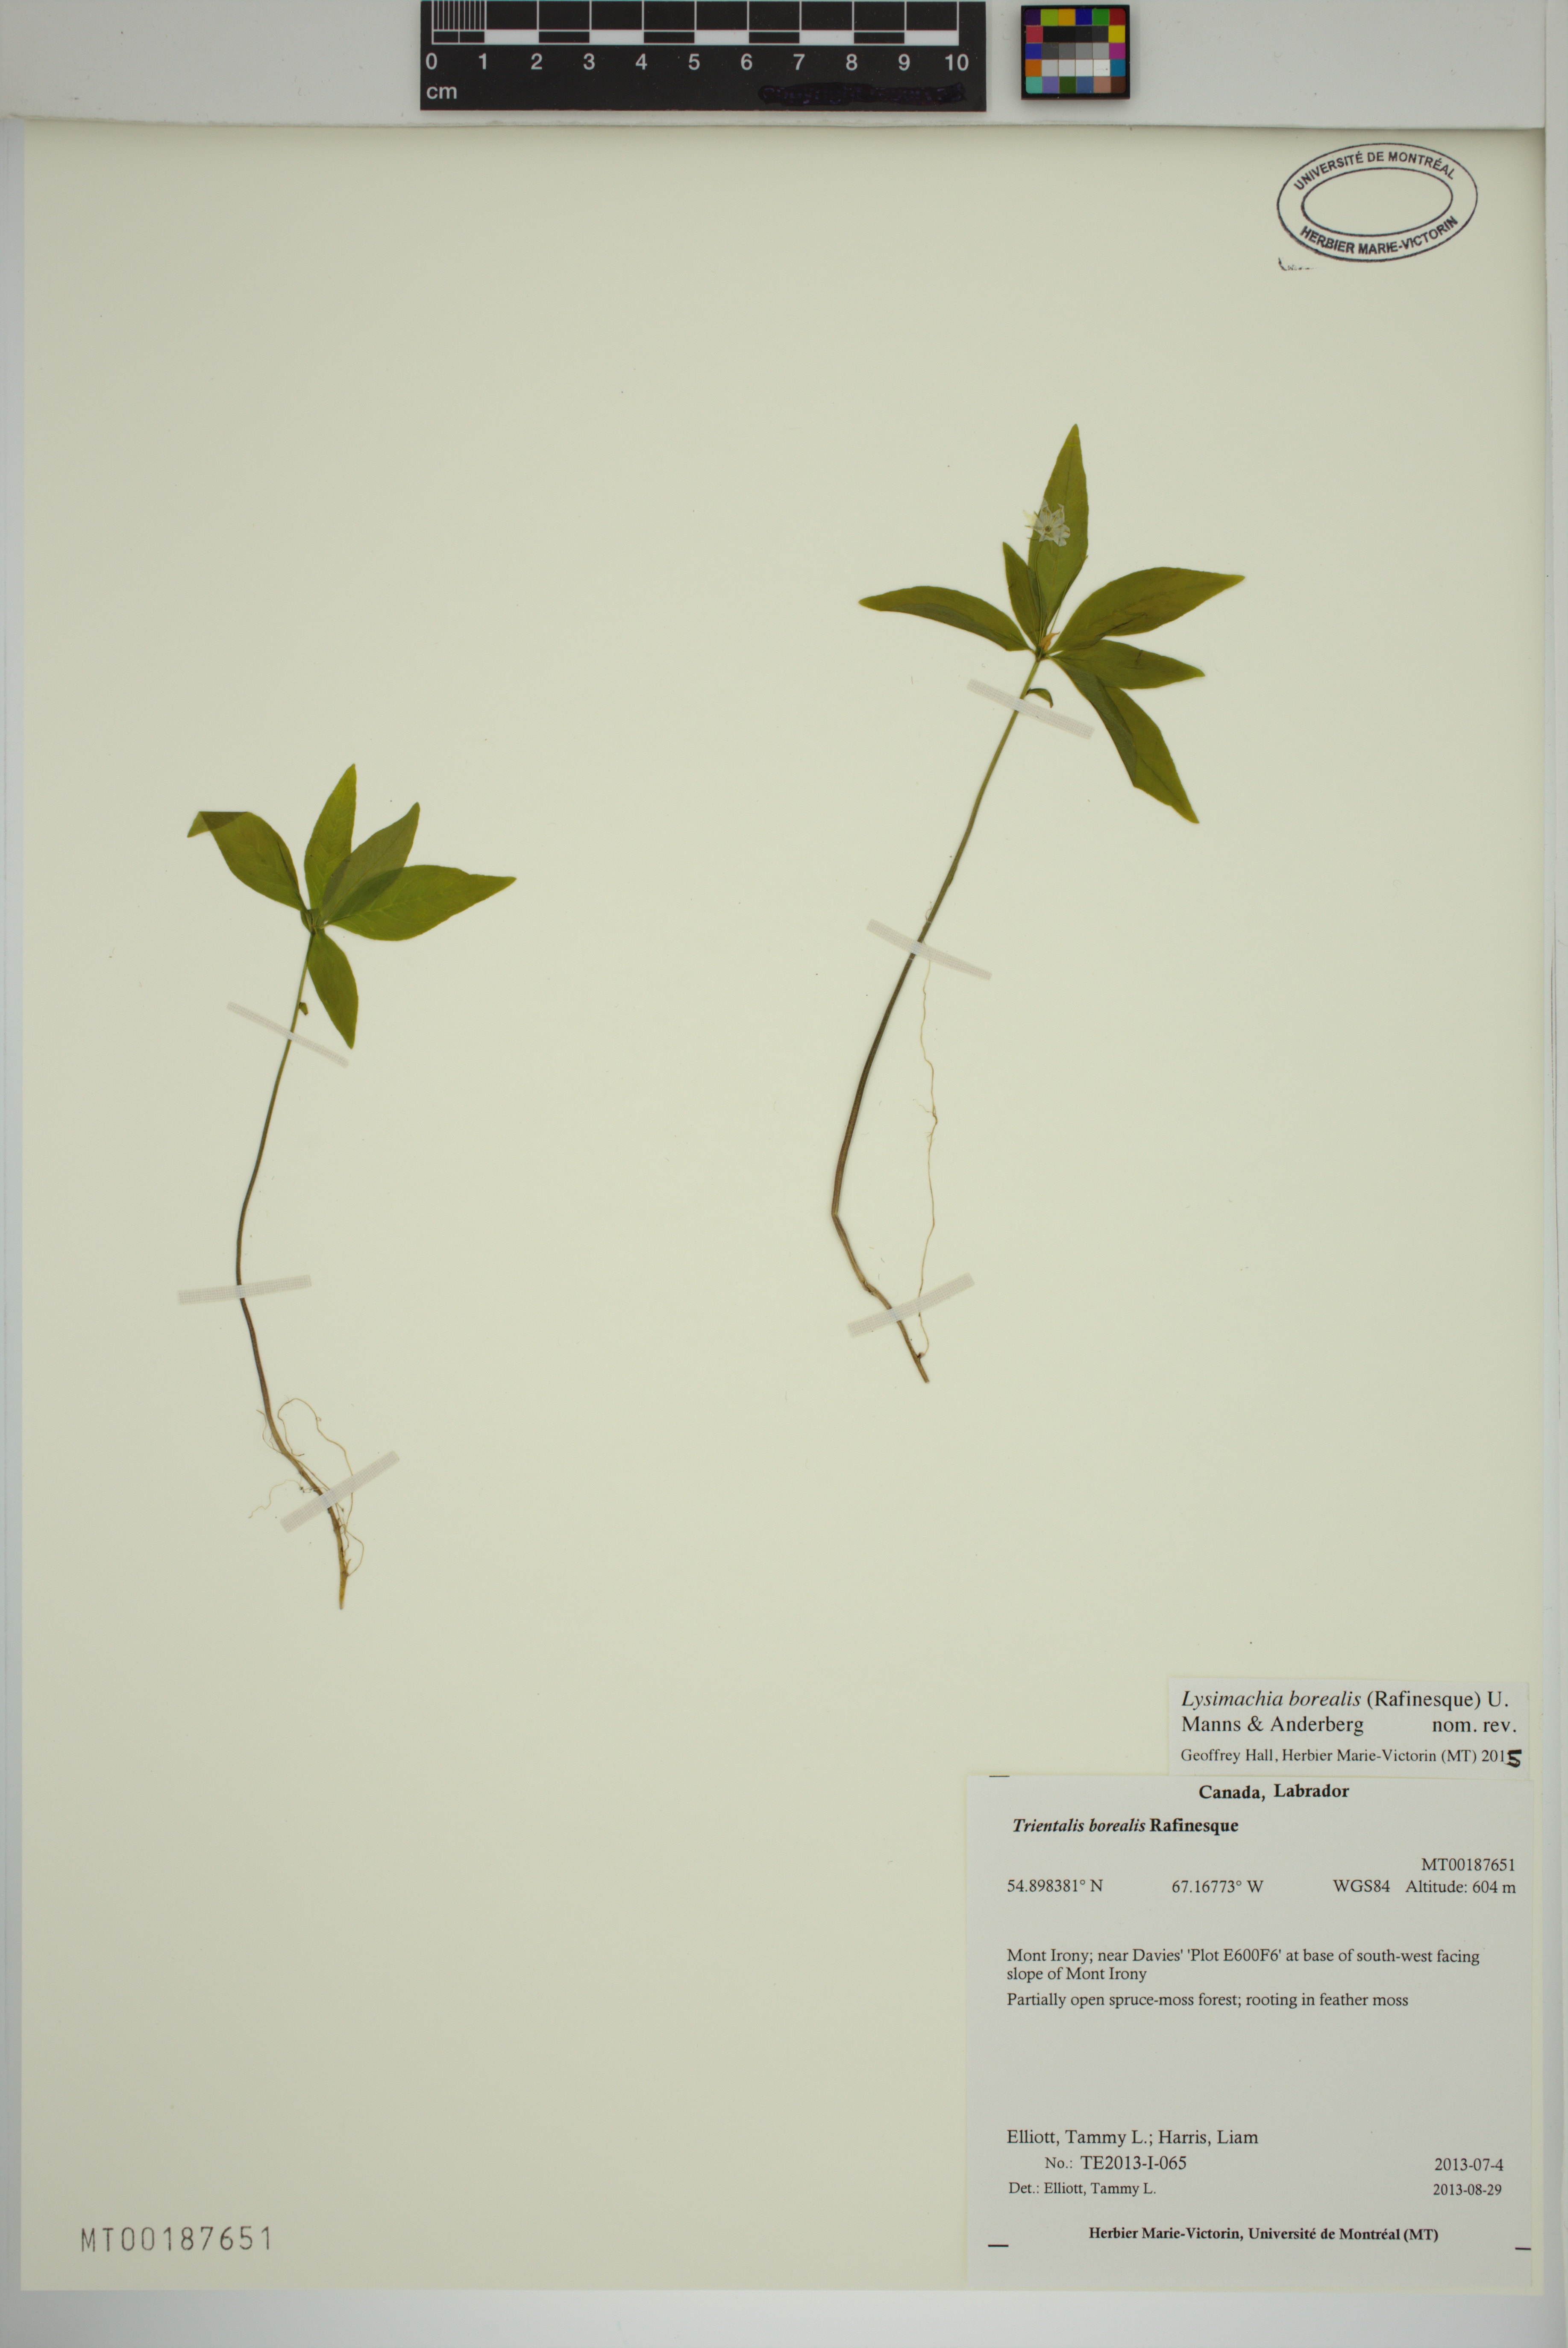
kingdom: Plantae
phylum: Tracheophyta
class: Magnoliopsida
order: Ericales
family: Primulaceae
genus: Lysimachia
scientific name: Lysimachia borealis
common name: American starflower
